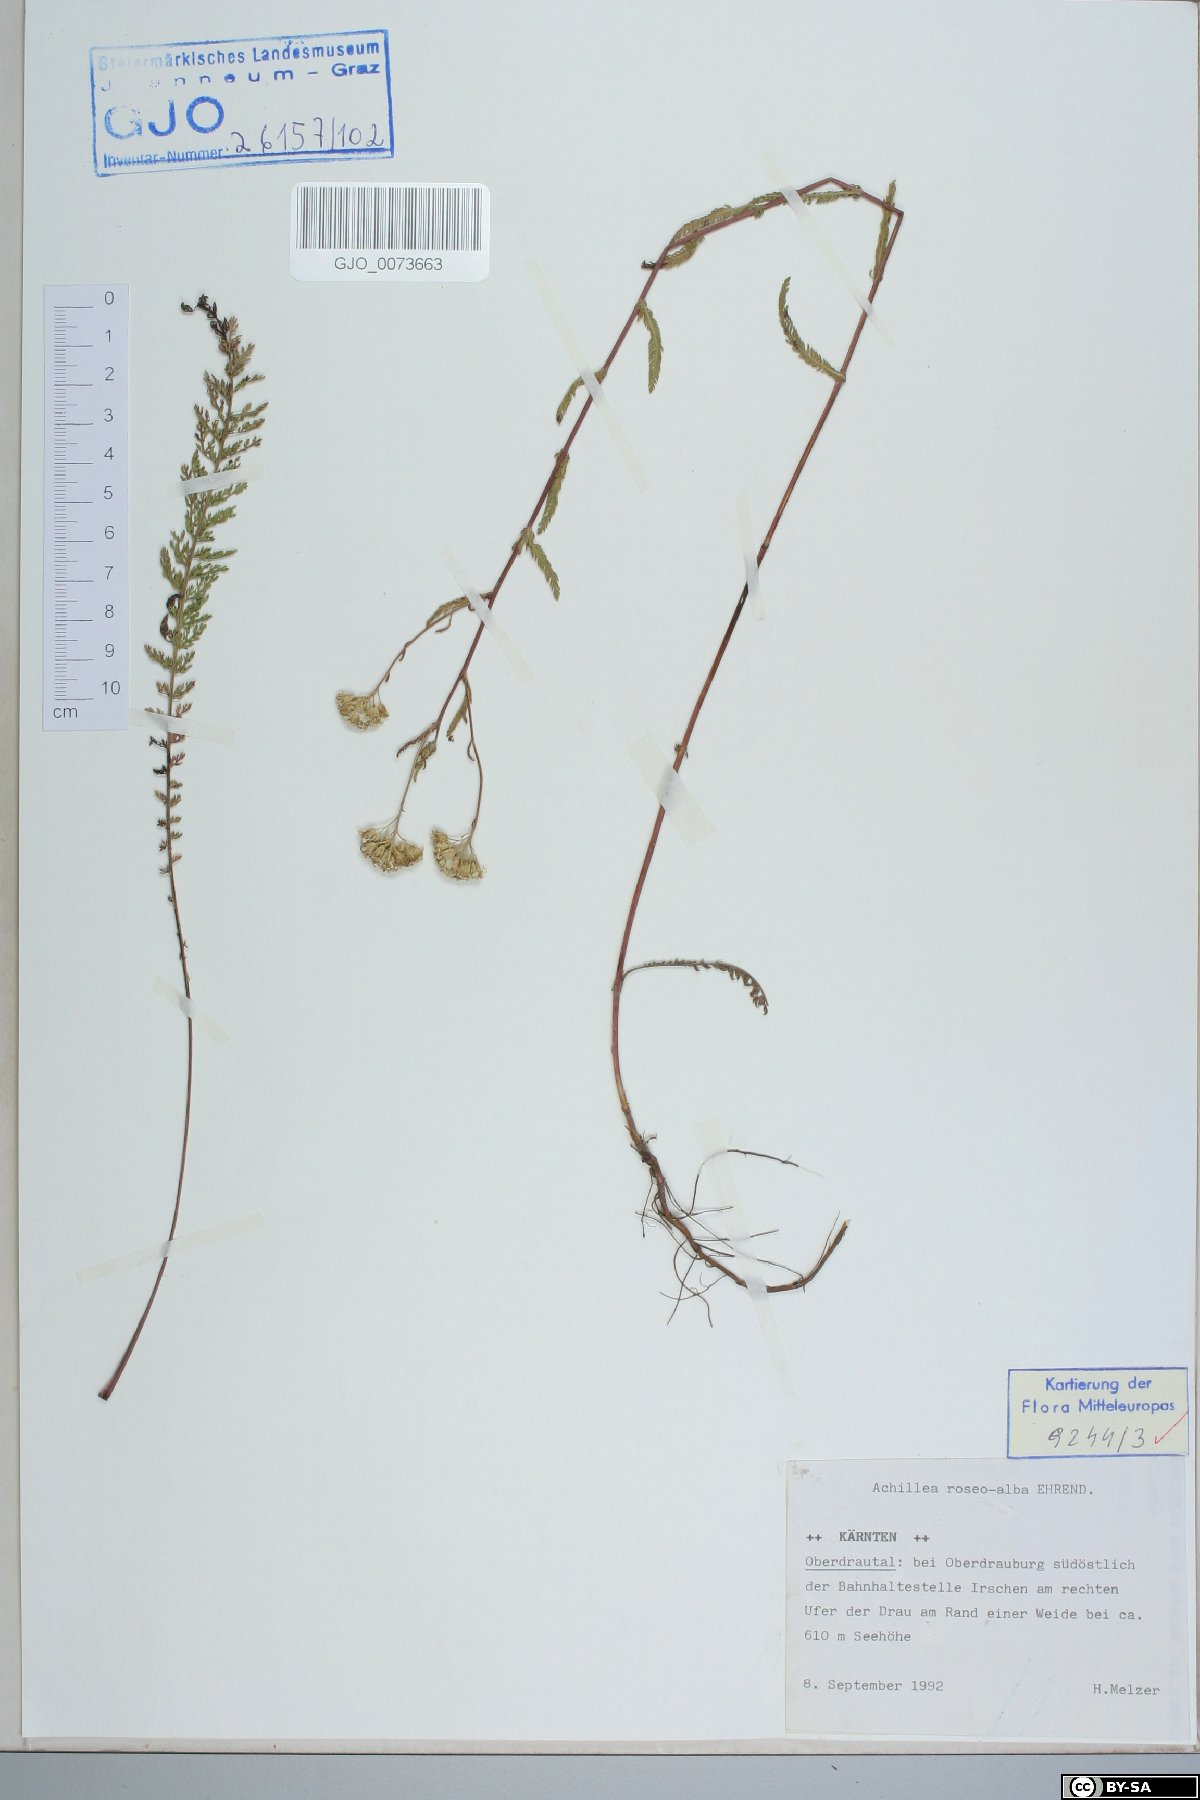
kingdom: Plantae
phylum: Tracheophyta
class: Magnoliopsida
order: Asterales
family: Asteraceae
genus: Achillea
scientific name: Achillea roseoalba
